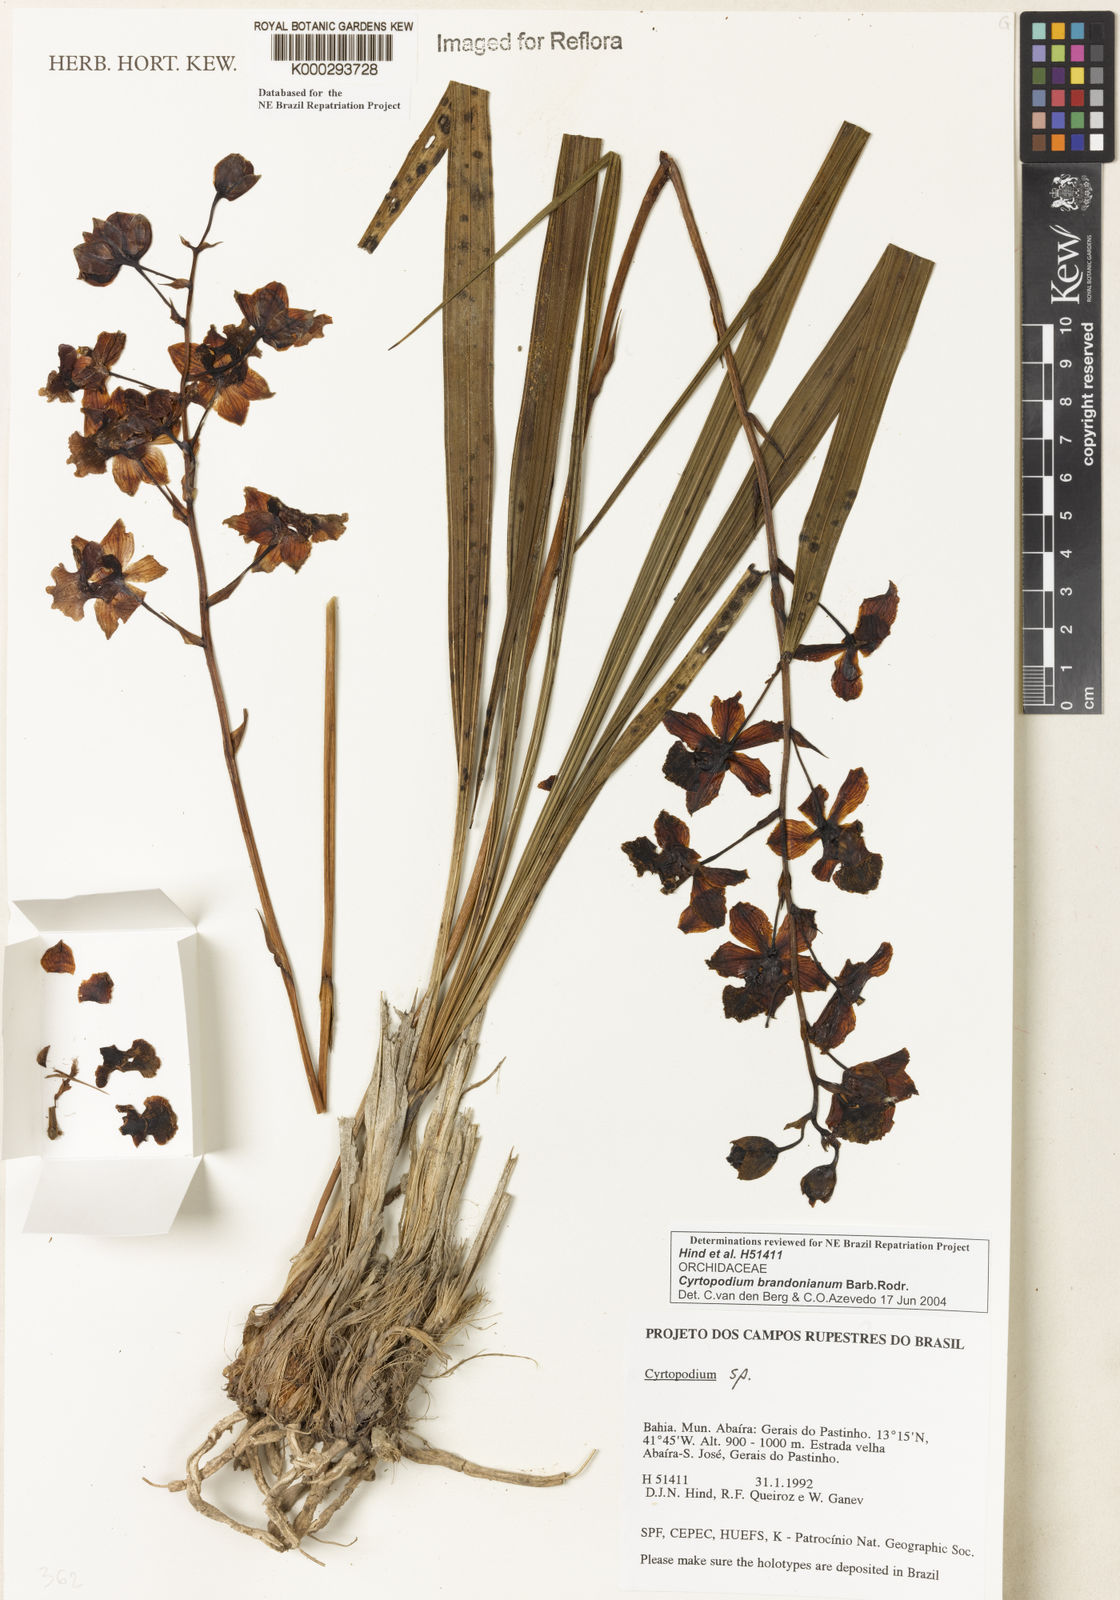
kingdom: Plantae
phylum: Tracheophyta
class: Liliopsida
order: Asparagales
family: Orchidaceae
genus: Cyrtopodium
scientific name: Cyrtopodium brandonianum
